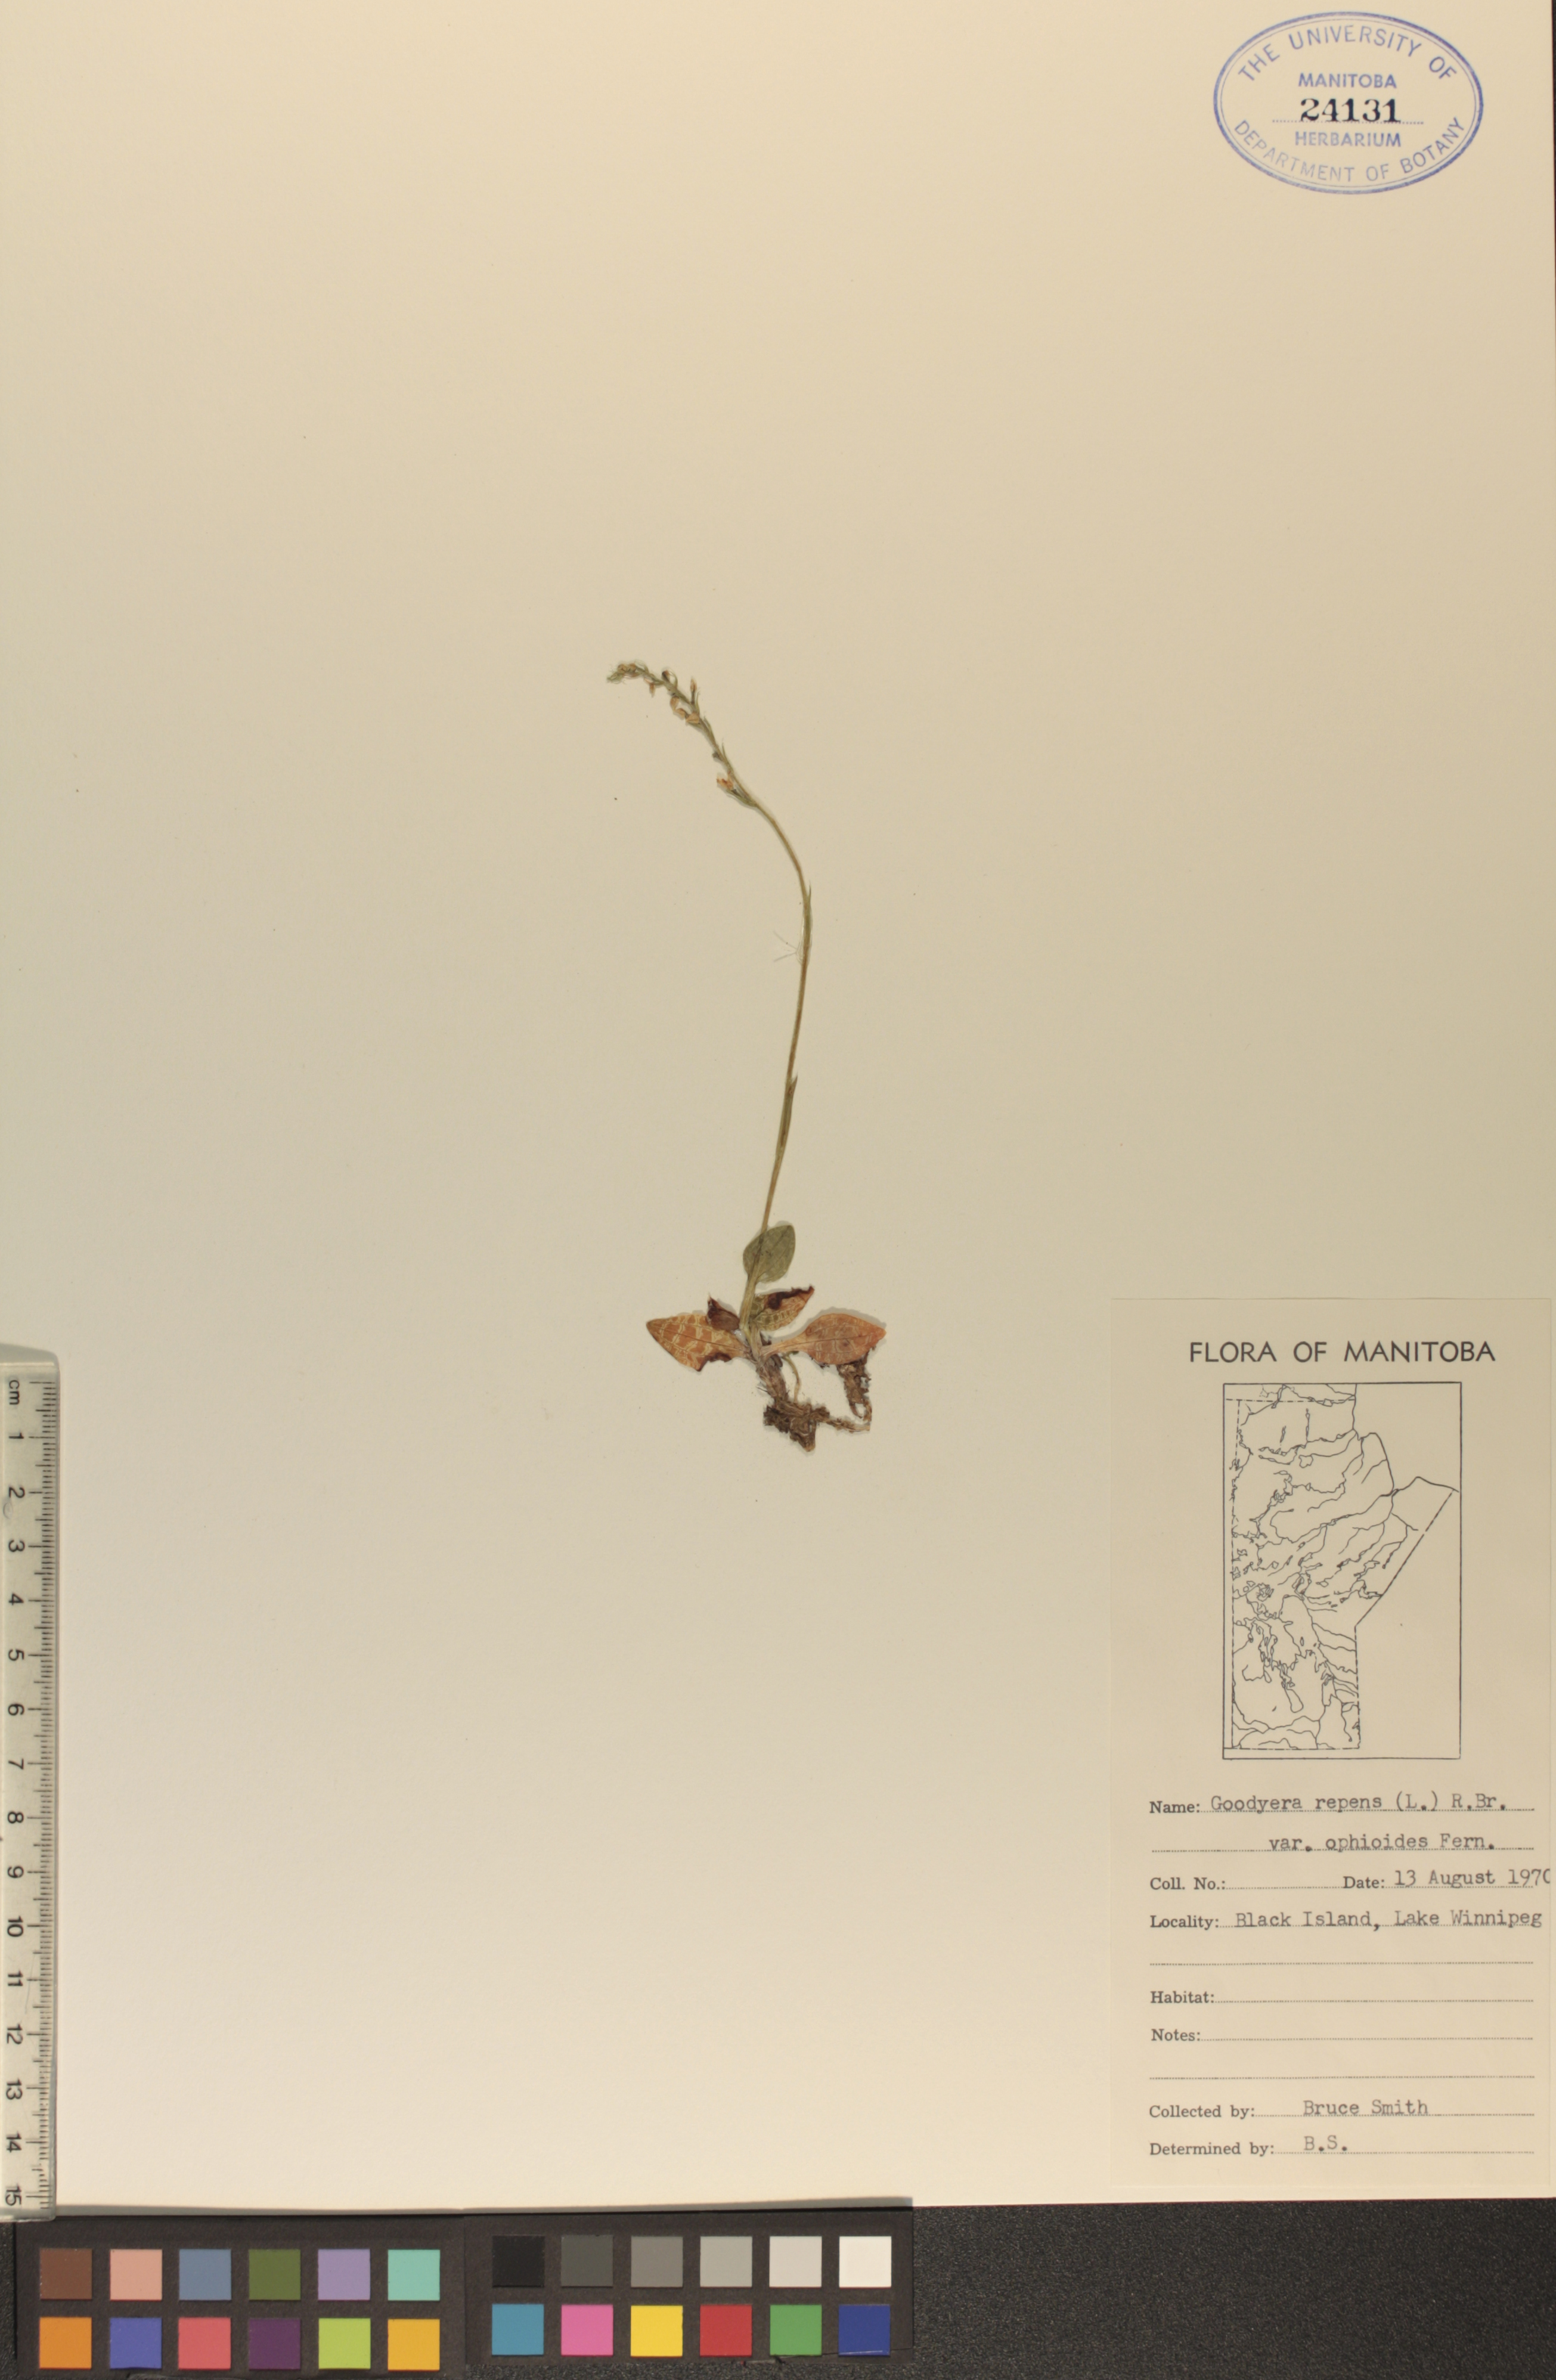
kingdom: Plantae
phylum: Tracheophyta
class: Liliopsida
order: Asparagales
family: Orchidaceae
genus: Goodyera
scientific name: Goodyera repens
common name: Creeping lady's-tresses
